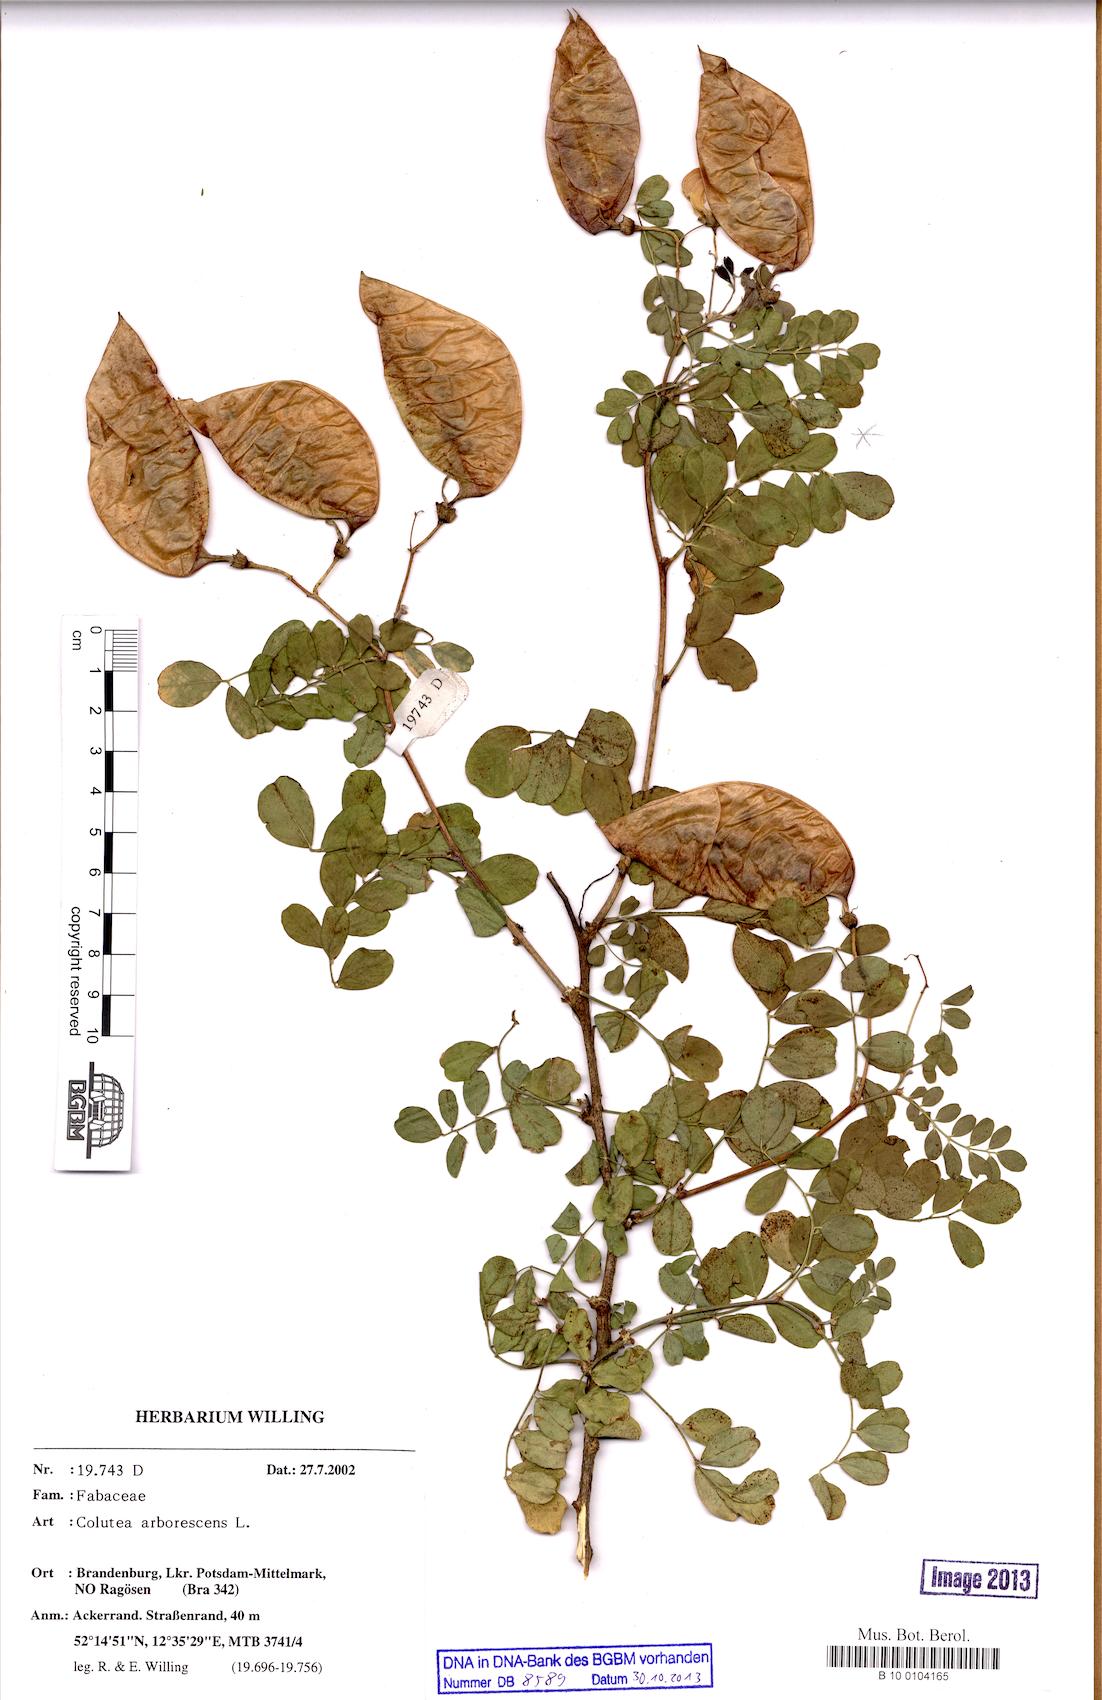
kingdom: Plantae
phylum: Tracheophyta
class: Magnoliopsida
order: Fabales
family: Fabaceae
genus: Colutea
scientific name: Colutea arborescens
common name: Bladder-senna
